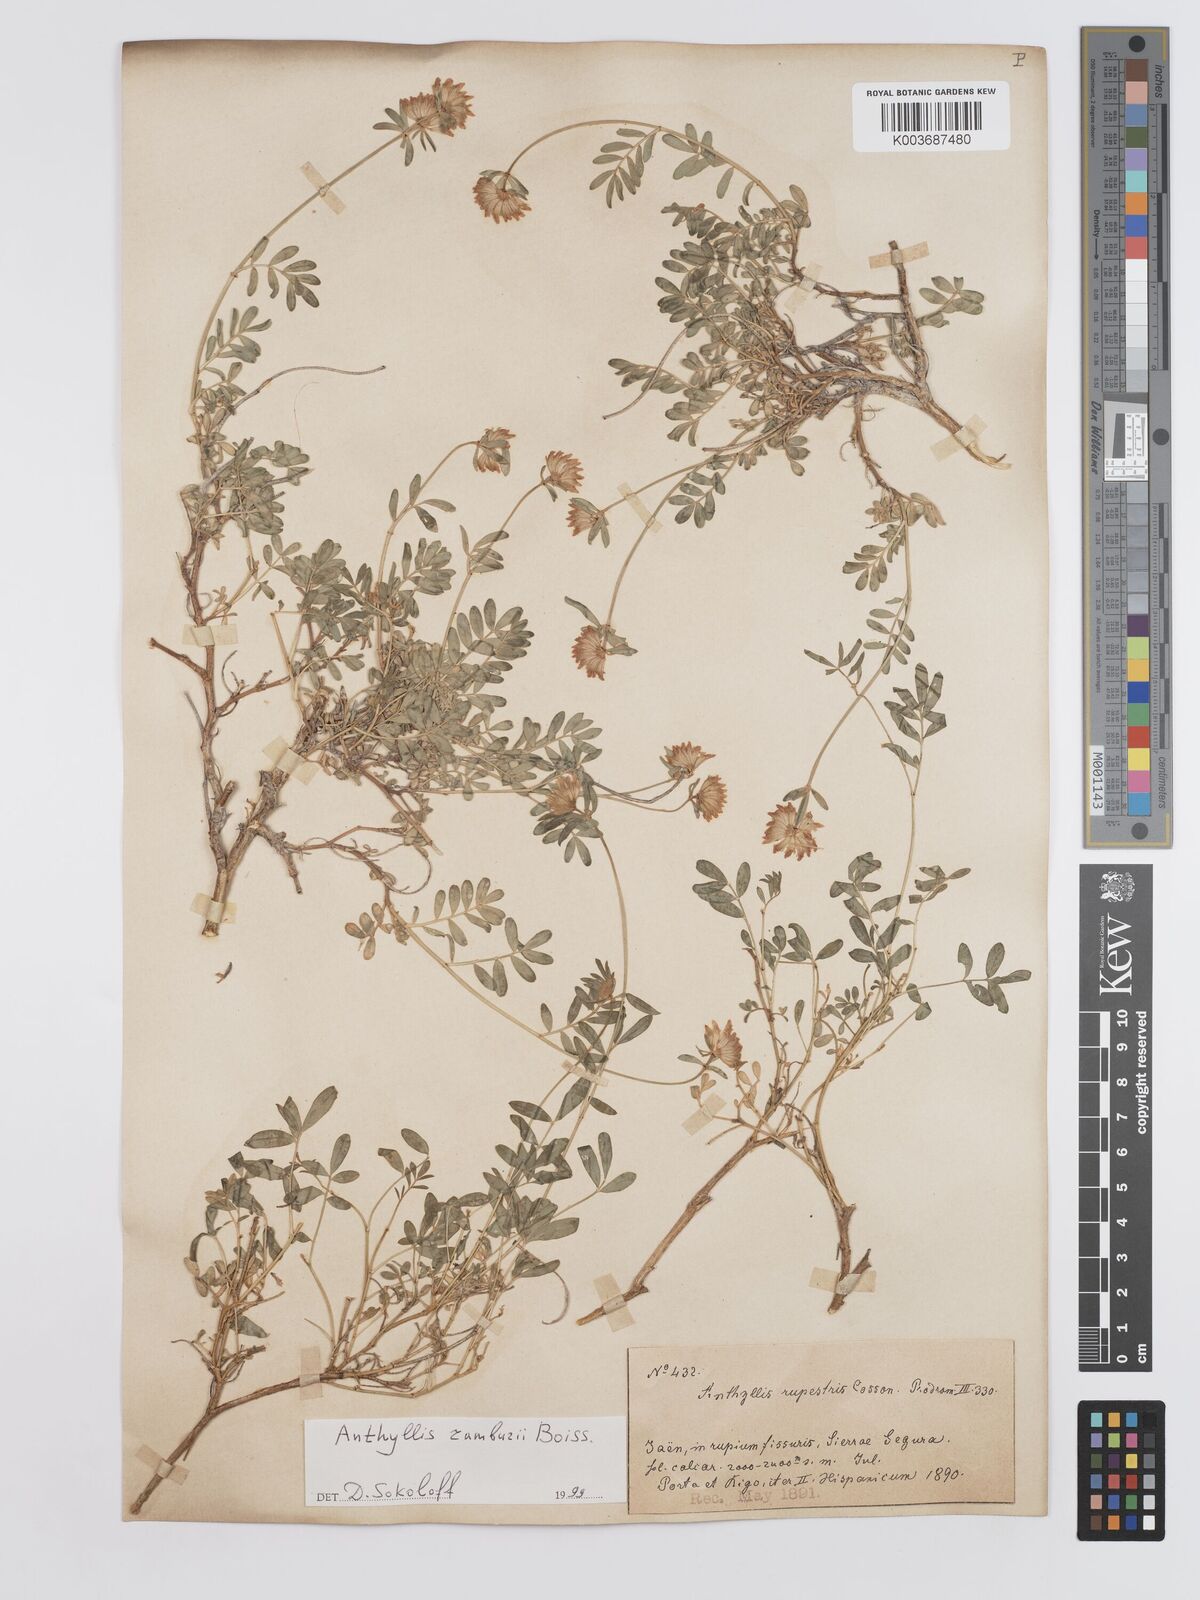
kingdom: Plantae
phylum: Tracheophyta
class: Magnoliopsida
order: Fabales
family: Fabaceae
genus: Anthyllis
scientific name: Anthyllis ramburei
